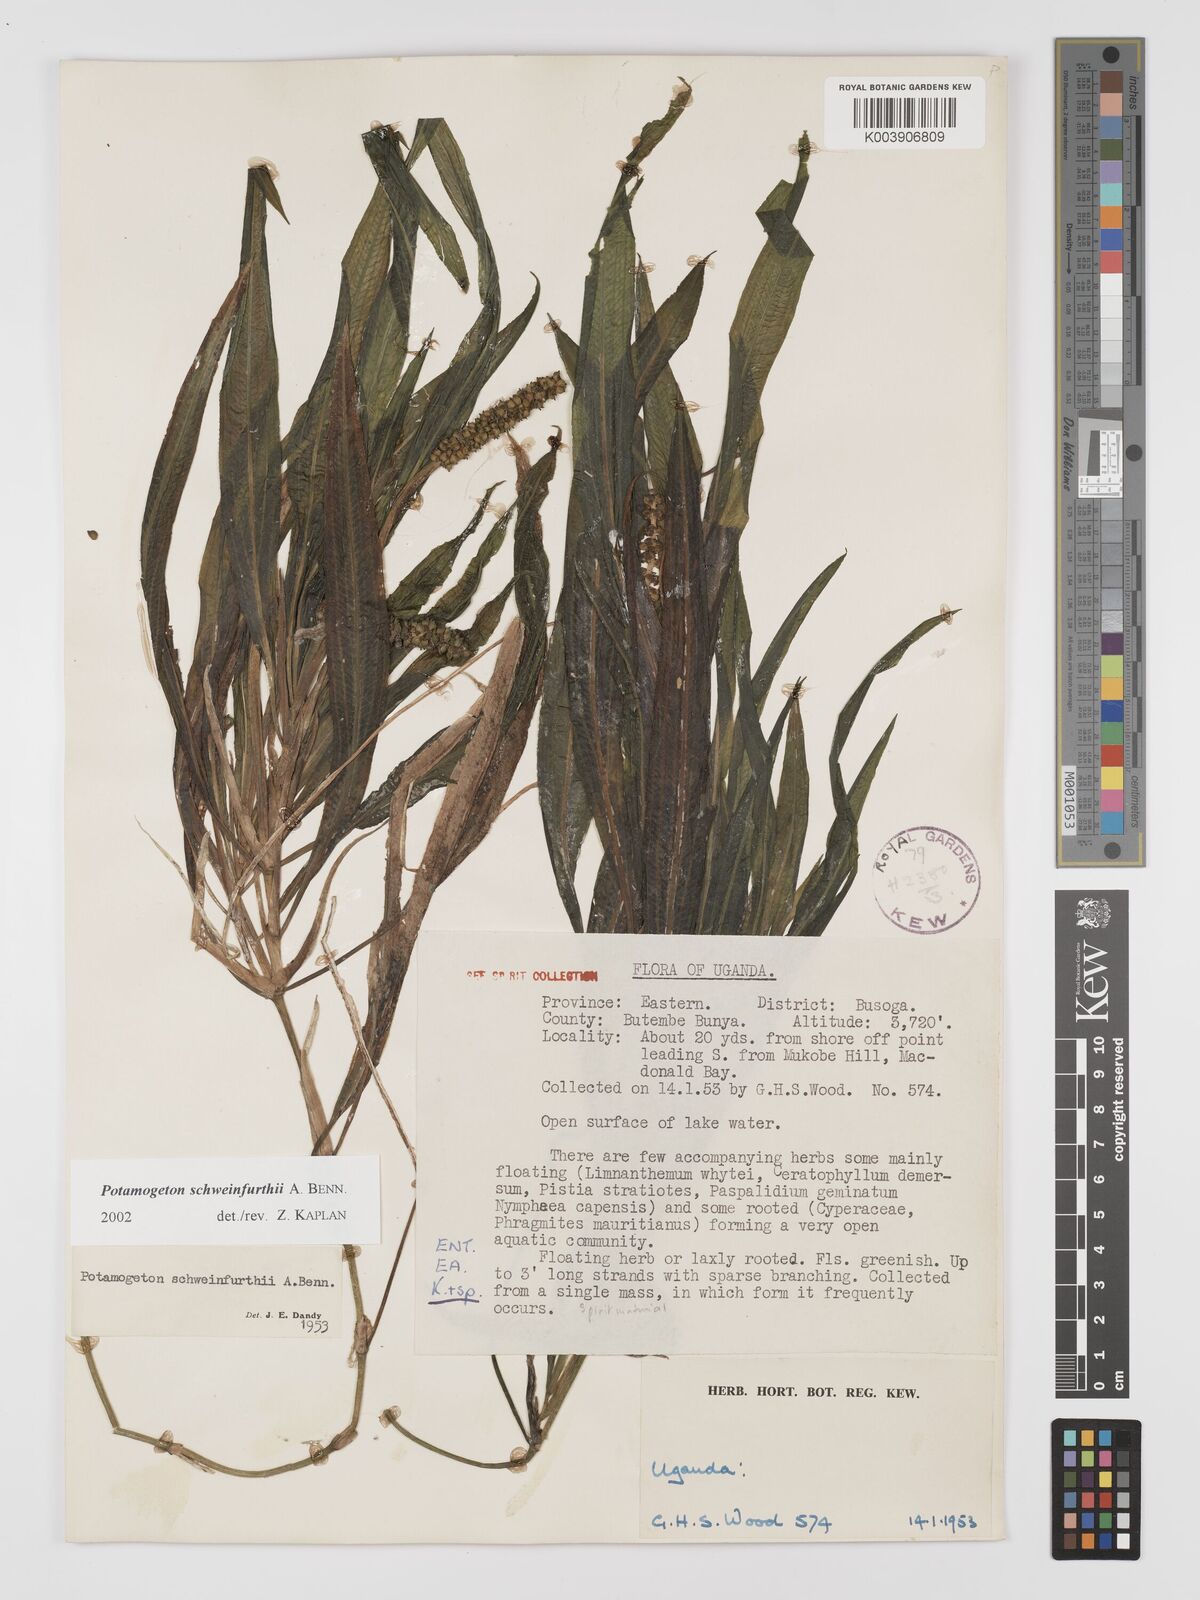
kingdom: Plantae
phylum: Tracheophyta
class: Liliopsida
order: Alismatales
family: Potamogetonaceae
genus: Potamogeton
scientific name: Potamogeton schweinfurthii
